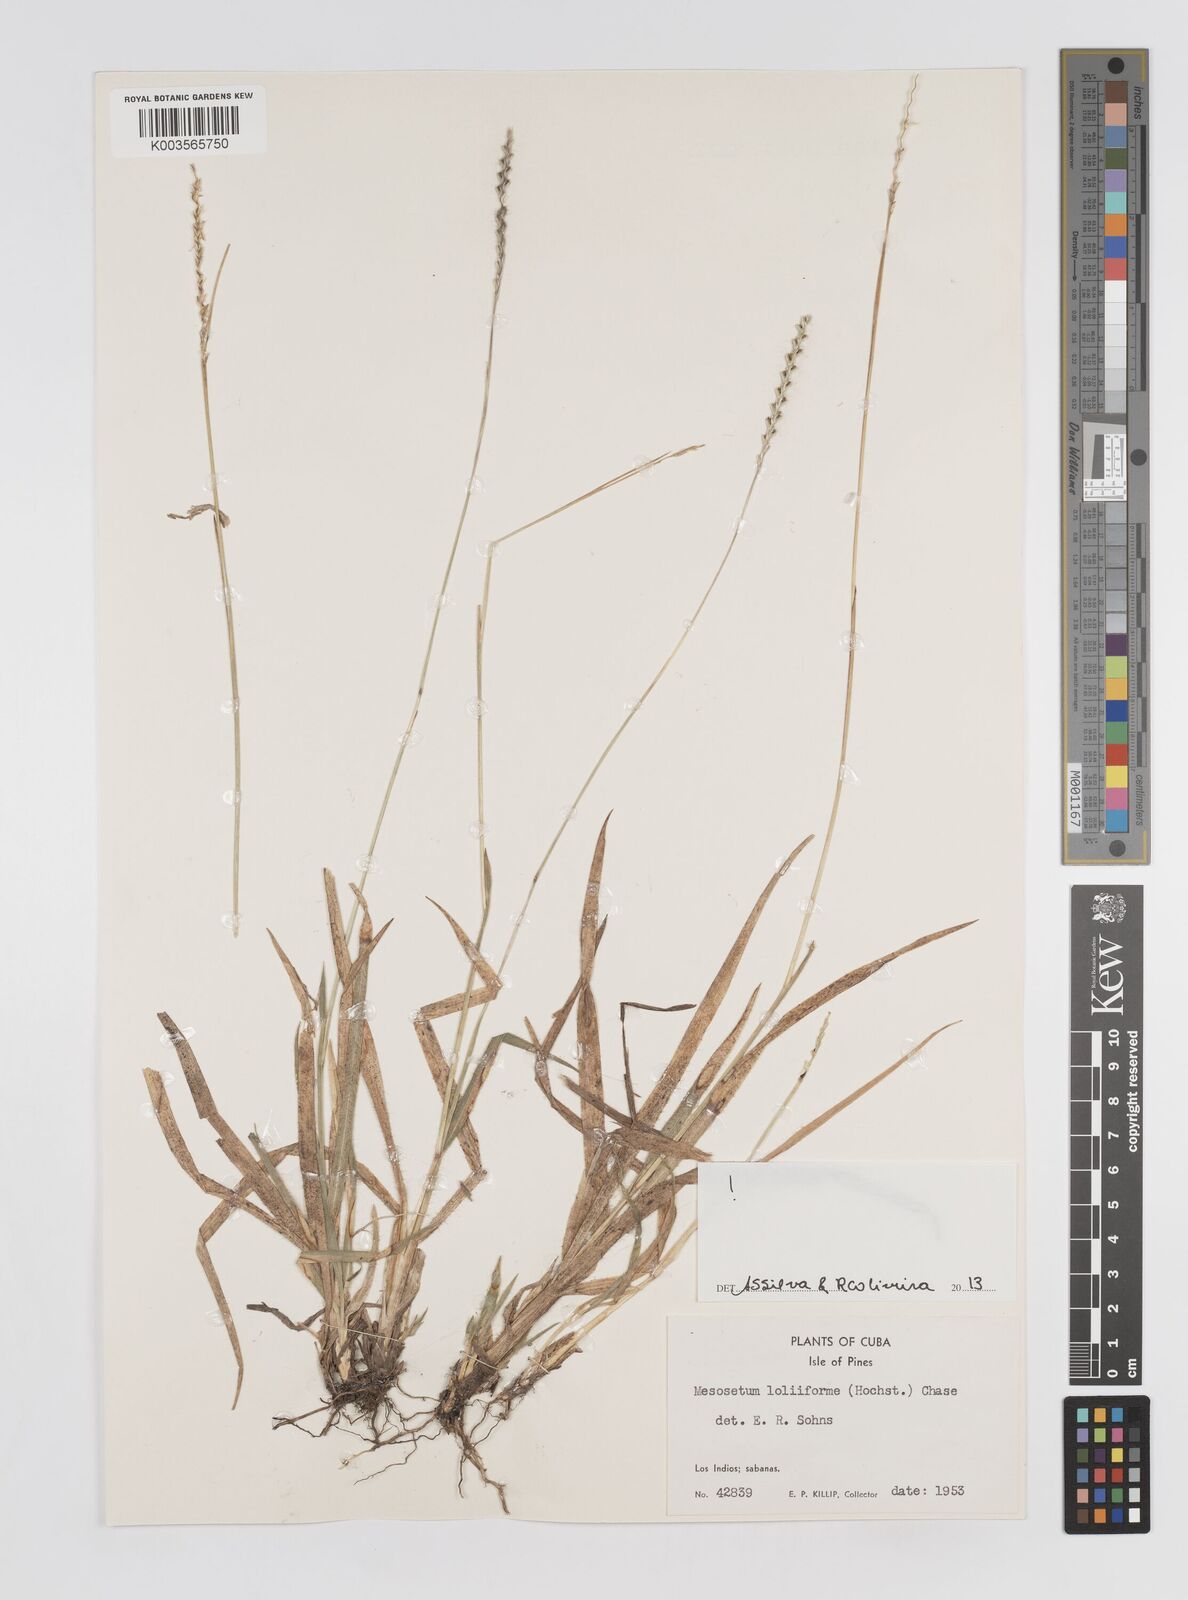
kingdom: Plantae
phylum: Tracheophyta
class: Liliopsida
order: Poales
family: Poaceae
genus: Mesosetum
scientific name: Mesosetum loliiforme
